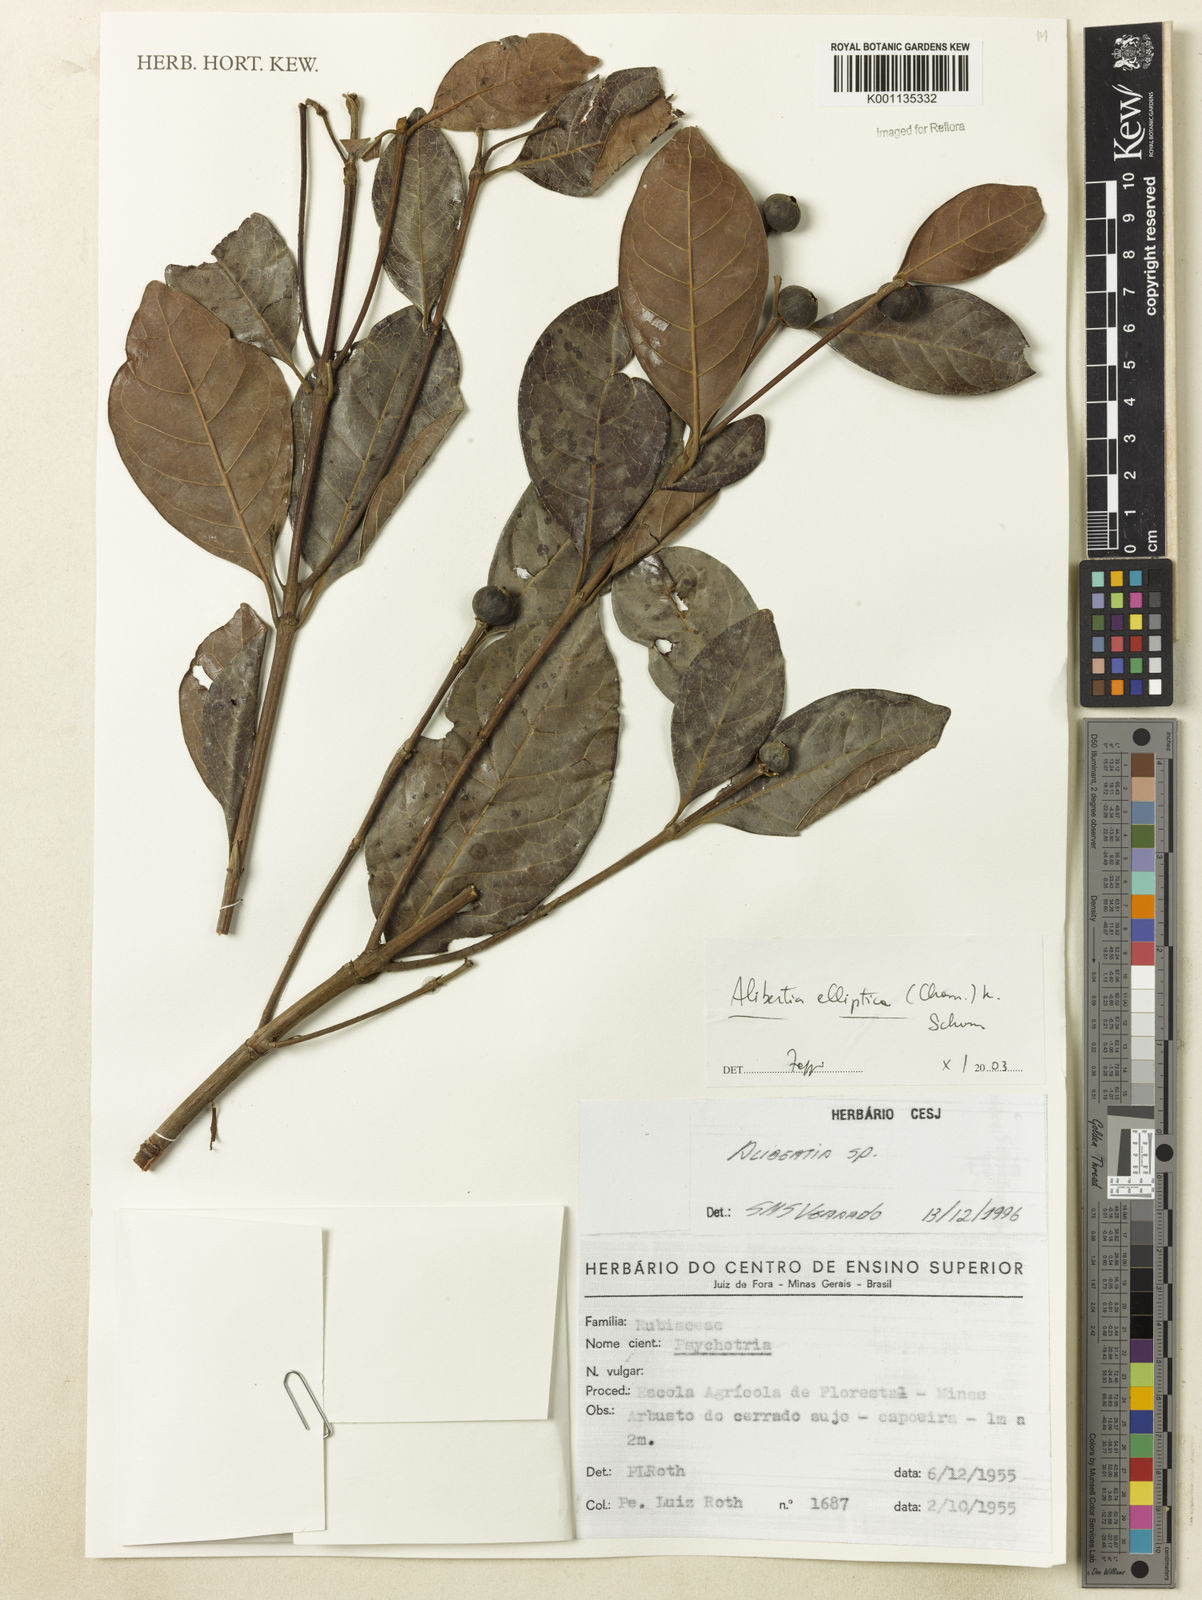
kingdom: Plantae
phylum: Tracheophyta
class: Magnoliopsida
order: Gentianales
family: Rubiaceae
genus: Cordiera
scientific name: Cordiera elliptica
